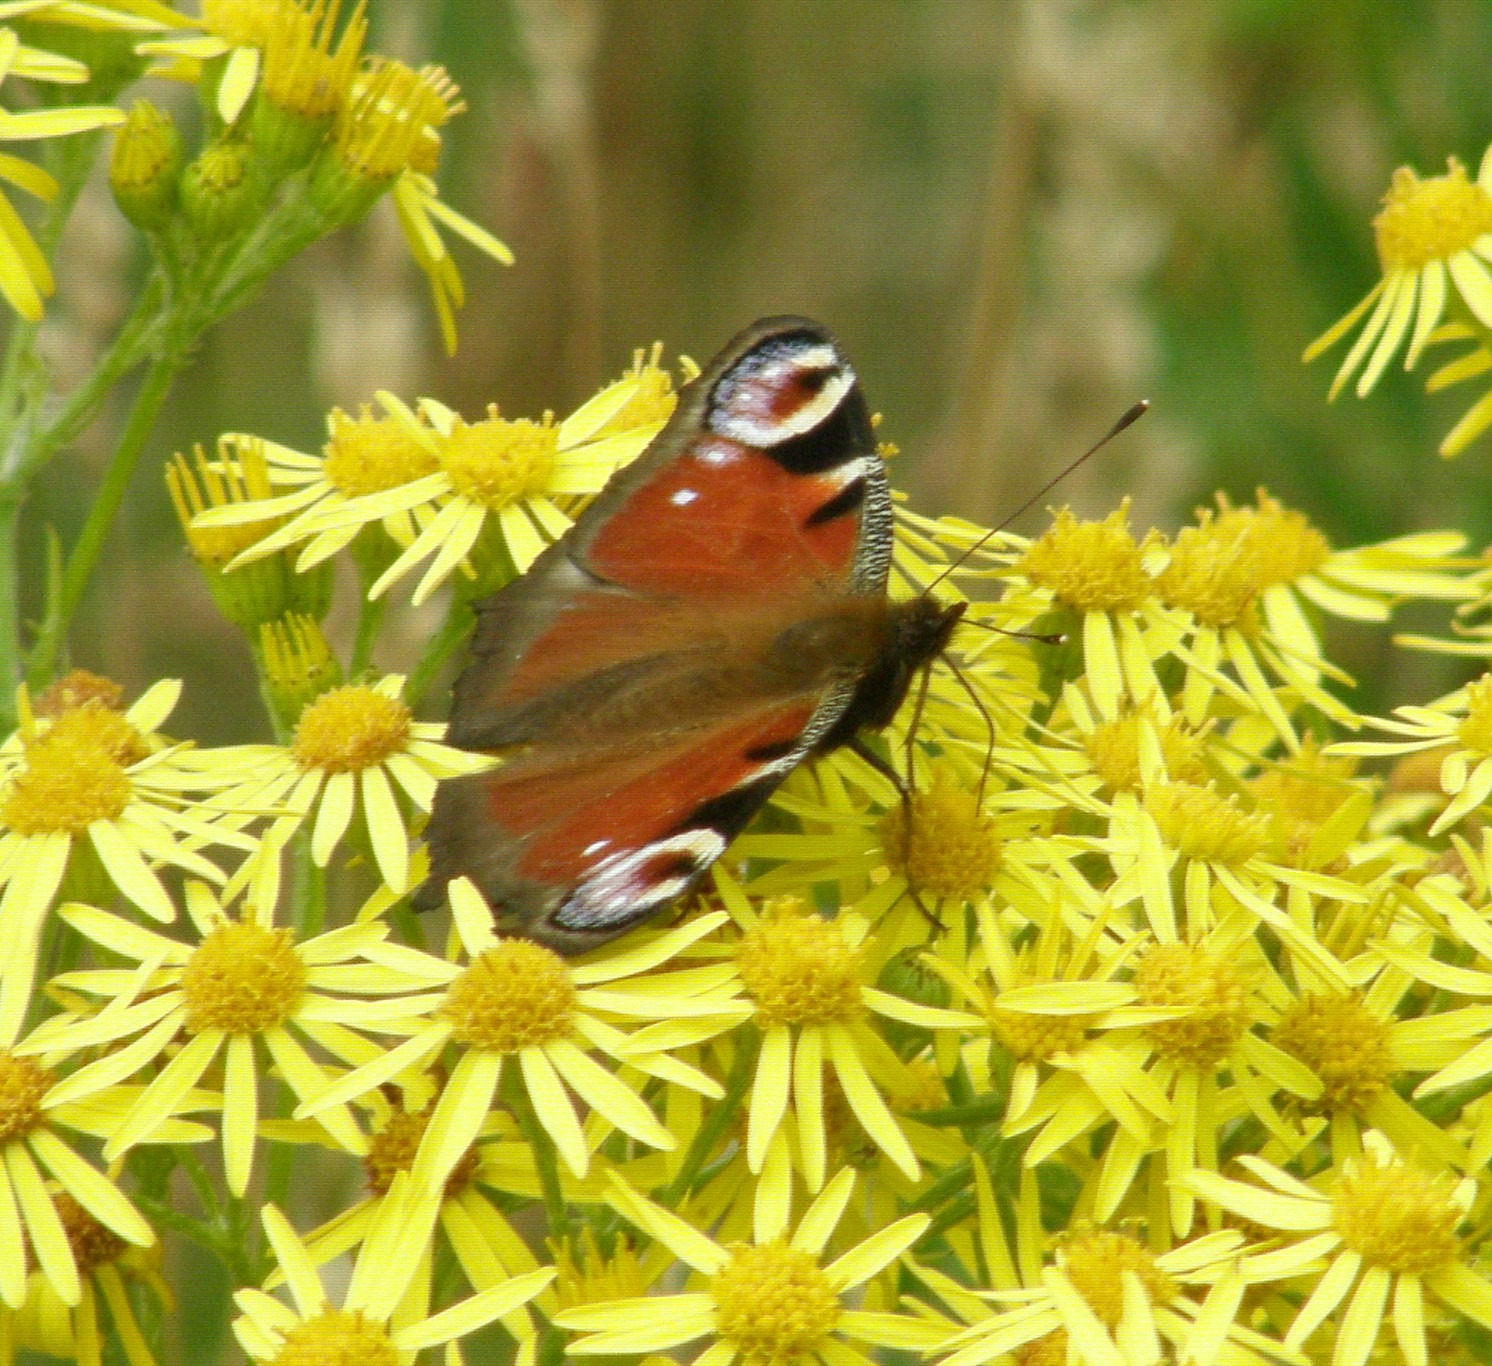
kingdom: Animalia
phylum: Arthropoda
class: Insecta
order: Lepidoptera
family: Nymphalidae
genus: Aglais
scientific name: Aglais io
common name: Dagpåfugleøje
